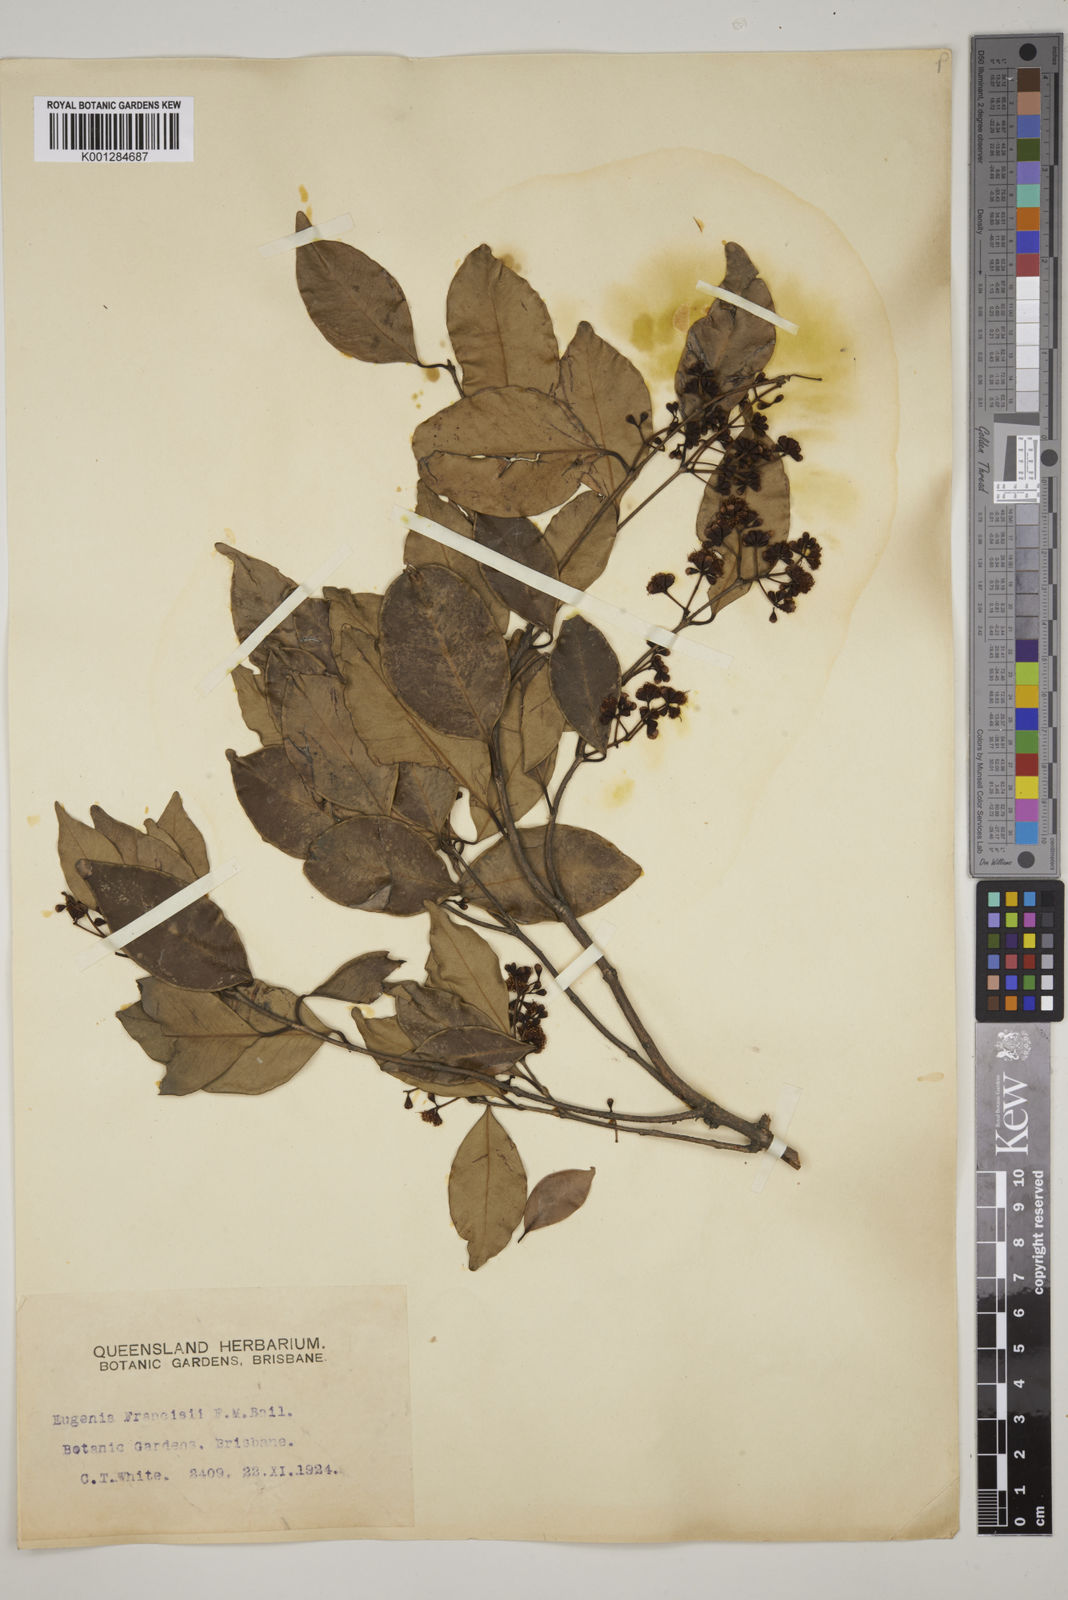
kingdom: Plantae
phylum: Tracheophyta
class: Magnoliopsida
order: Myrtales
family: Myrtaceae
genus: Syzygium
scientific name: Syzygium francisii
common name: Giant water-gum
